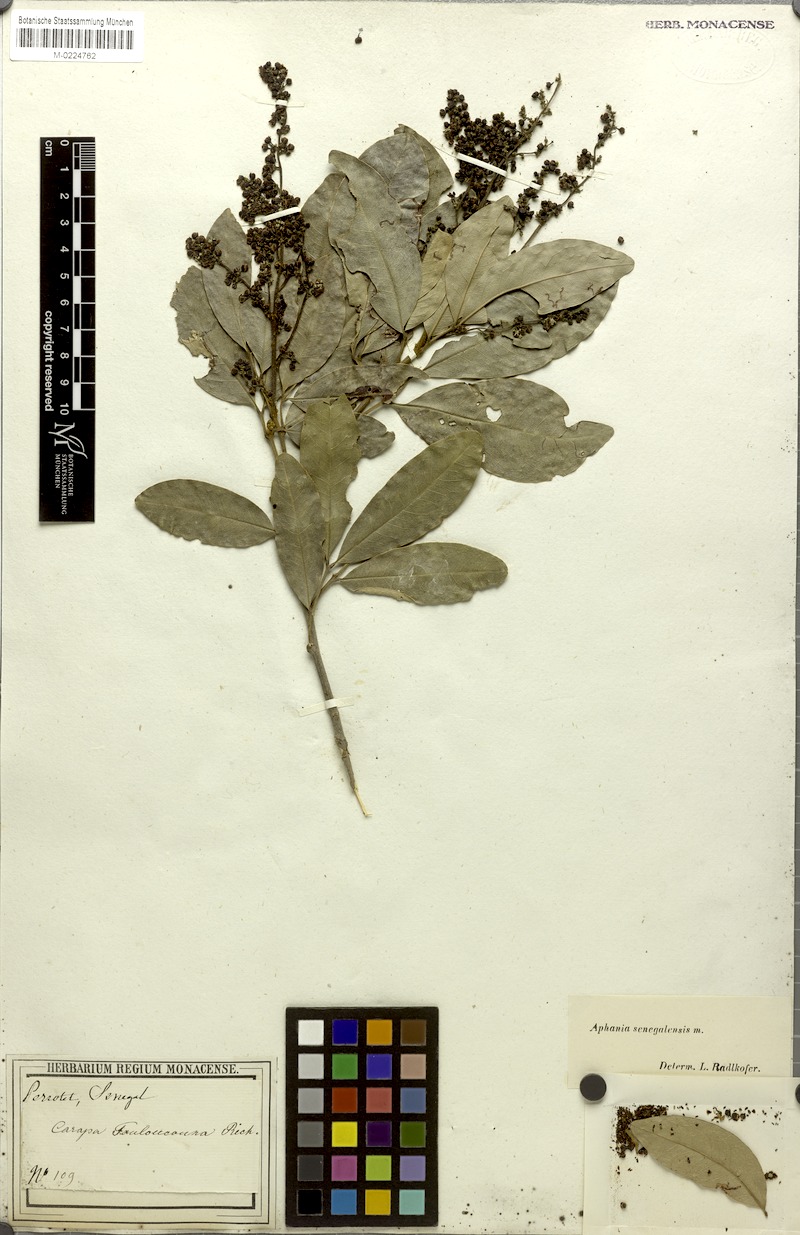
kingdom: Plantae
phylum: Tracheophyta
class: Magnoliopsida
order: Sapindales
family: Sapindaceae
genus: Lepisanthes
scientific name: Lepisanthes senegalensis
